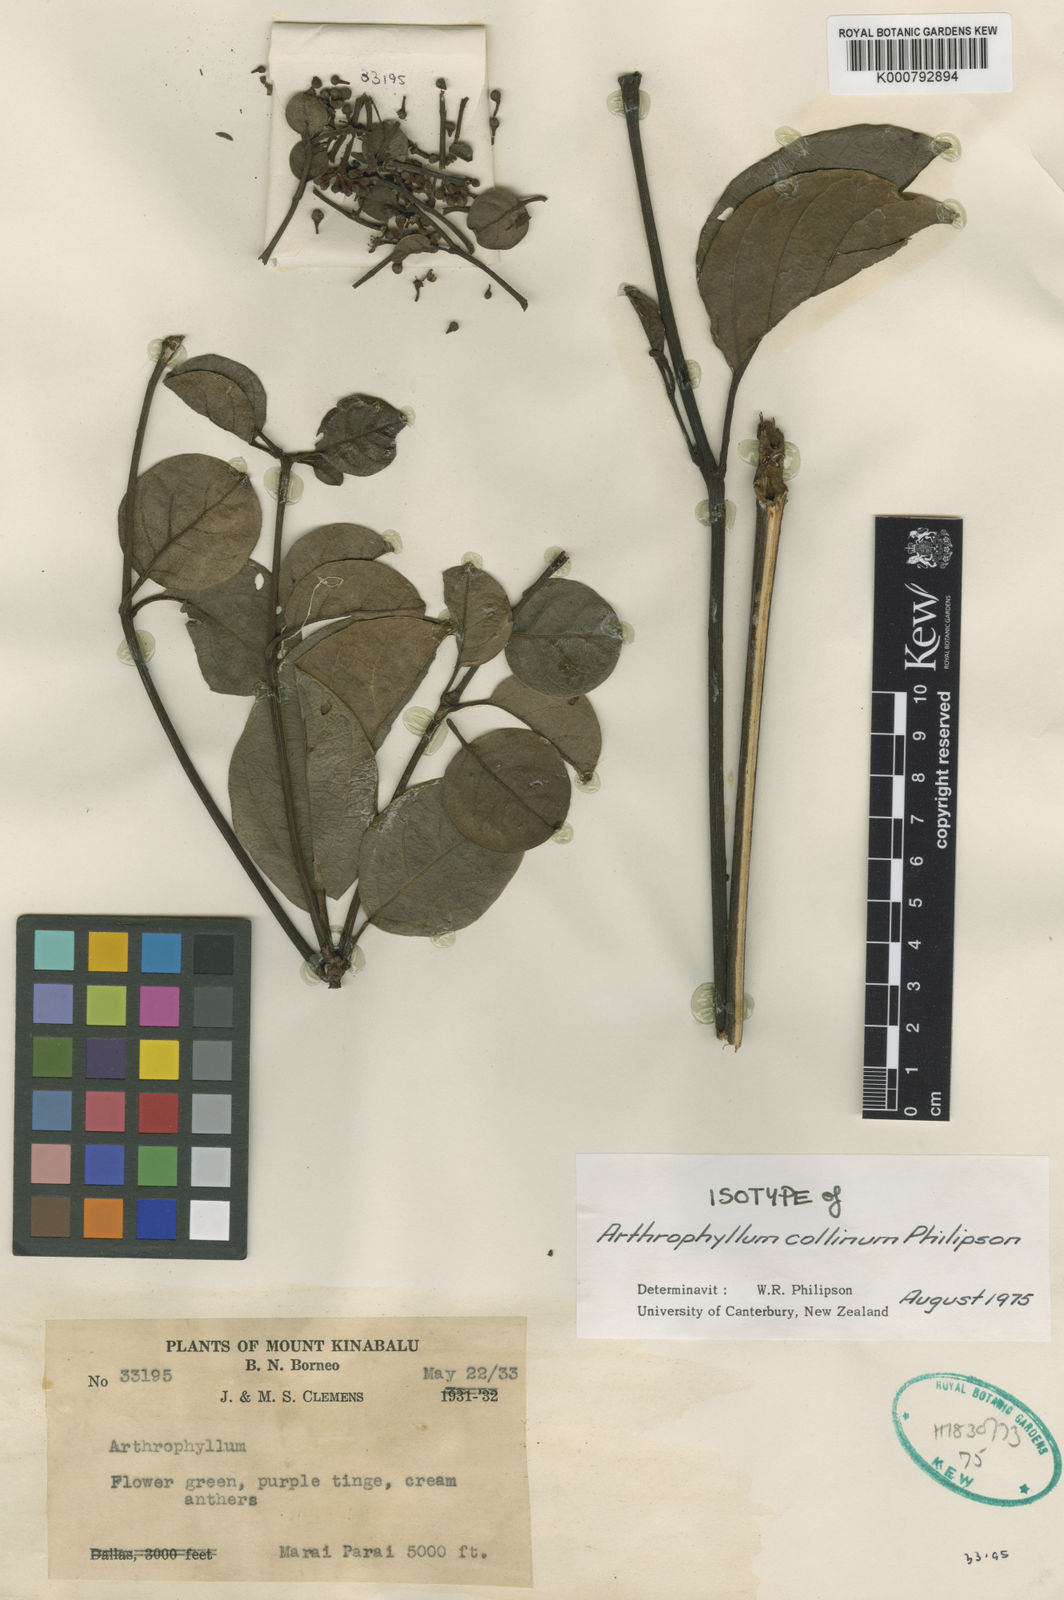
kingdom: Plantae
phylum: Tracheophyta
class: Magnoliopsida
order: Apiales
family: Araliaceae
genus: Polyscias
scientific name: Polyscias collina
